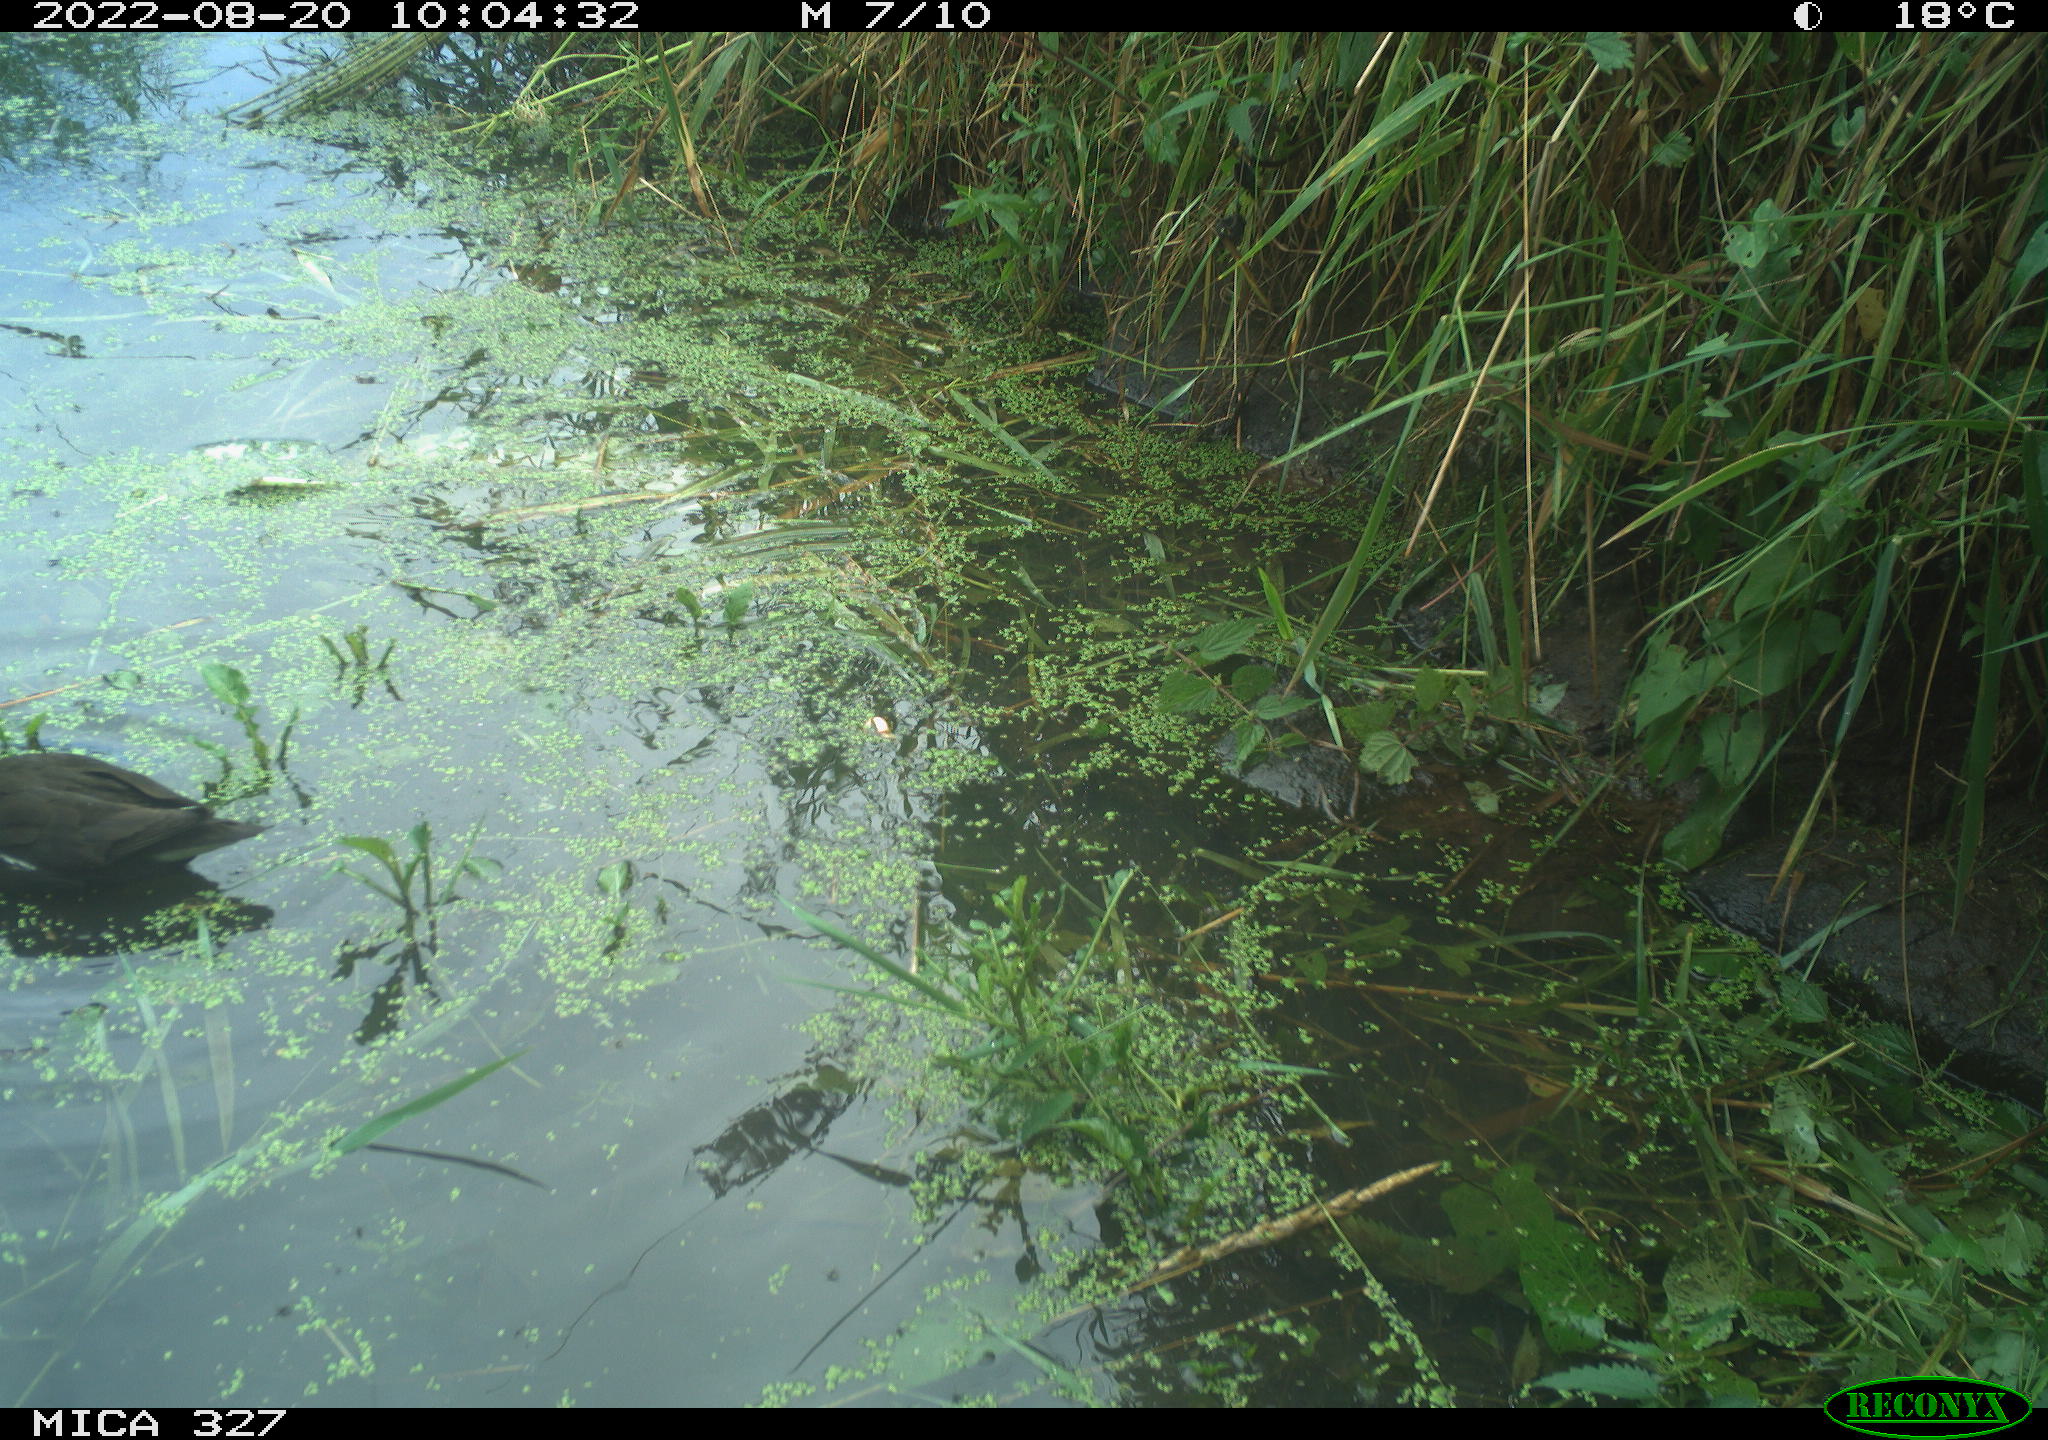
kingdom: Animalia
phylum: Chordata
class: Aves
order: Gruiformes
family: Rallidae
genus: Gallinula
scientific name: Gallinula chloropus
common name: Common moorhen
